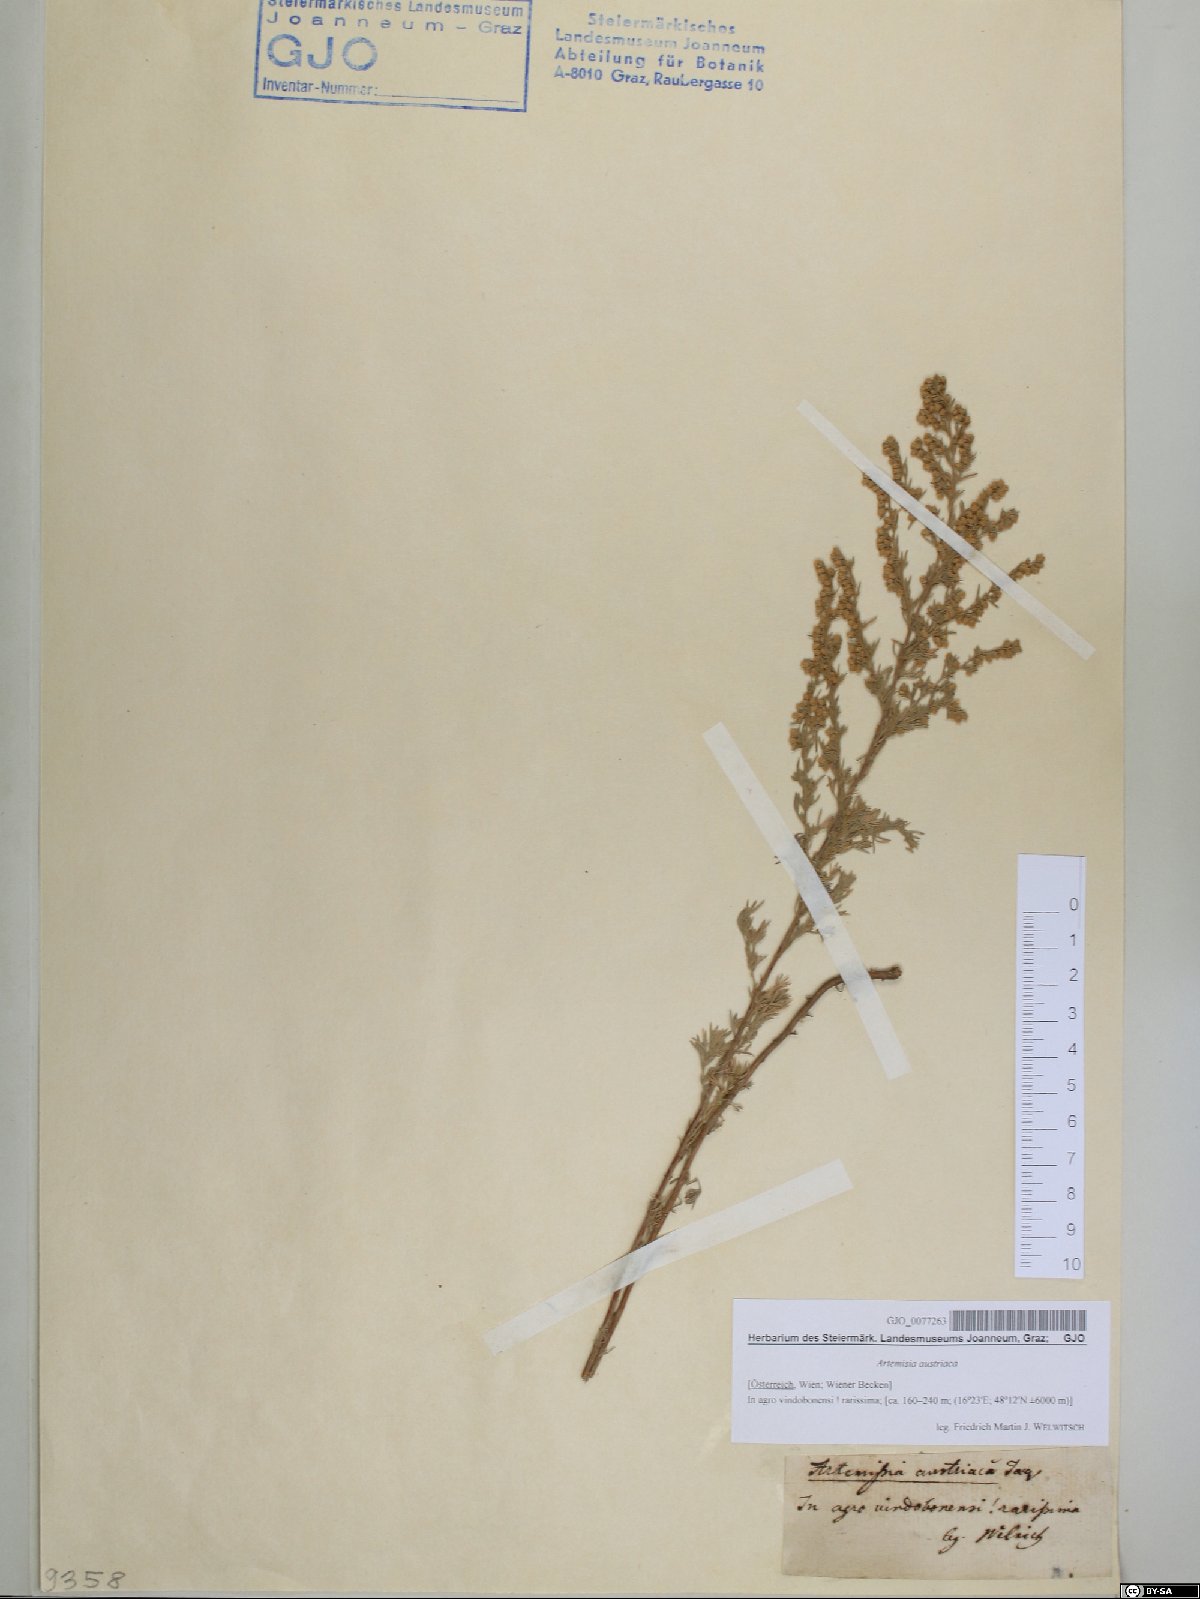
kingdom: Plantae
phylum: Tracheophyta
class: Magnoliopsida
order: Asterales
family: Asteraceae
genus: Artemisia
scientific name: Artemisia austriaca
